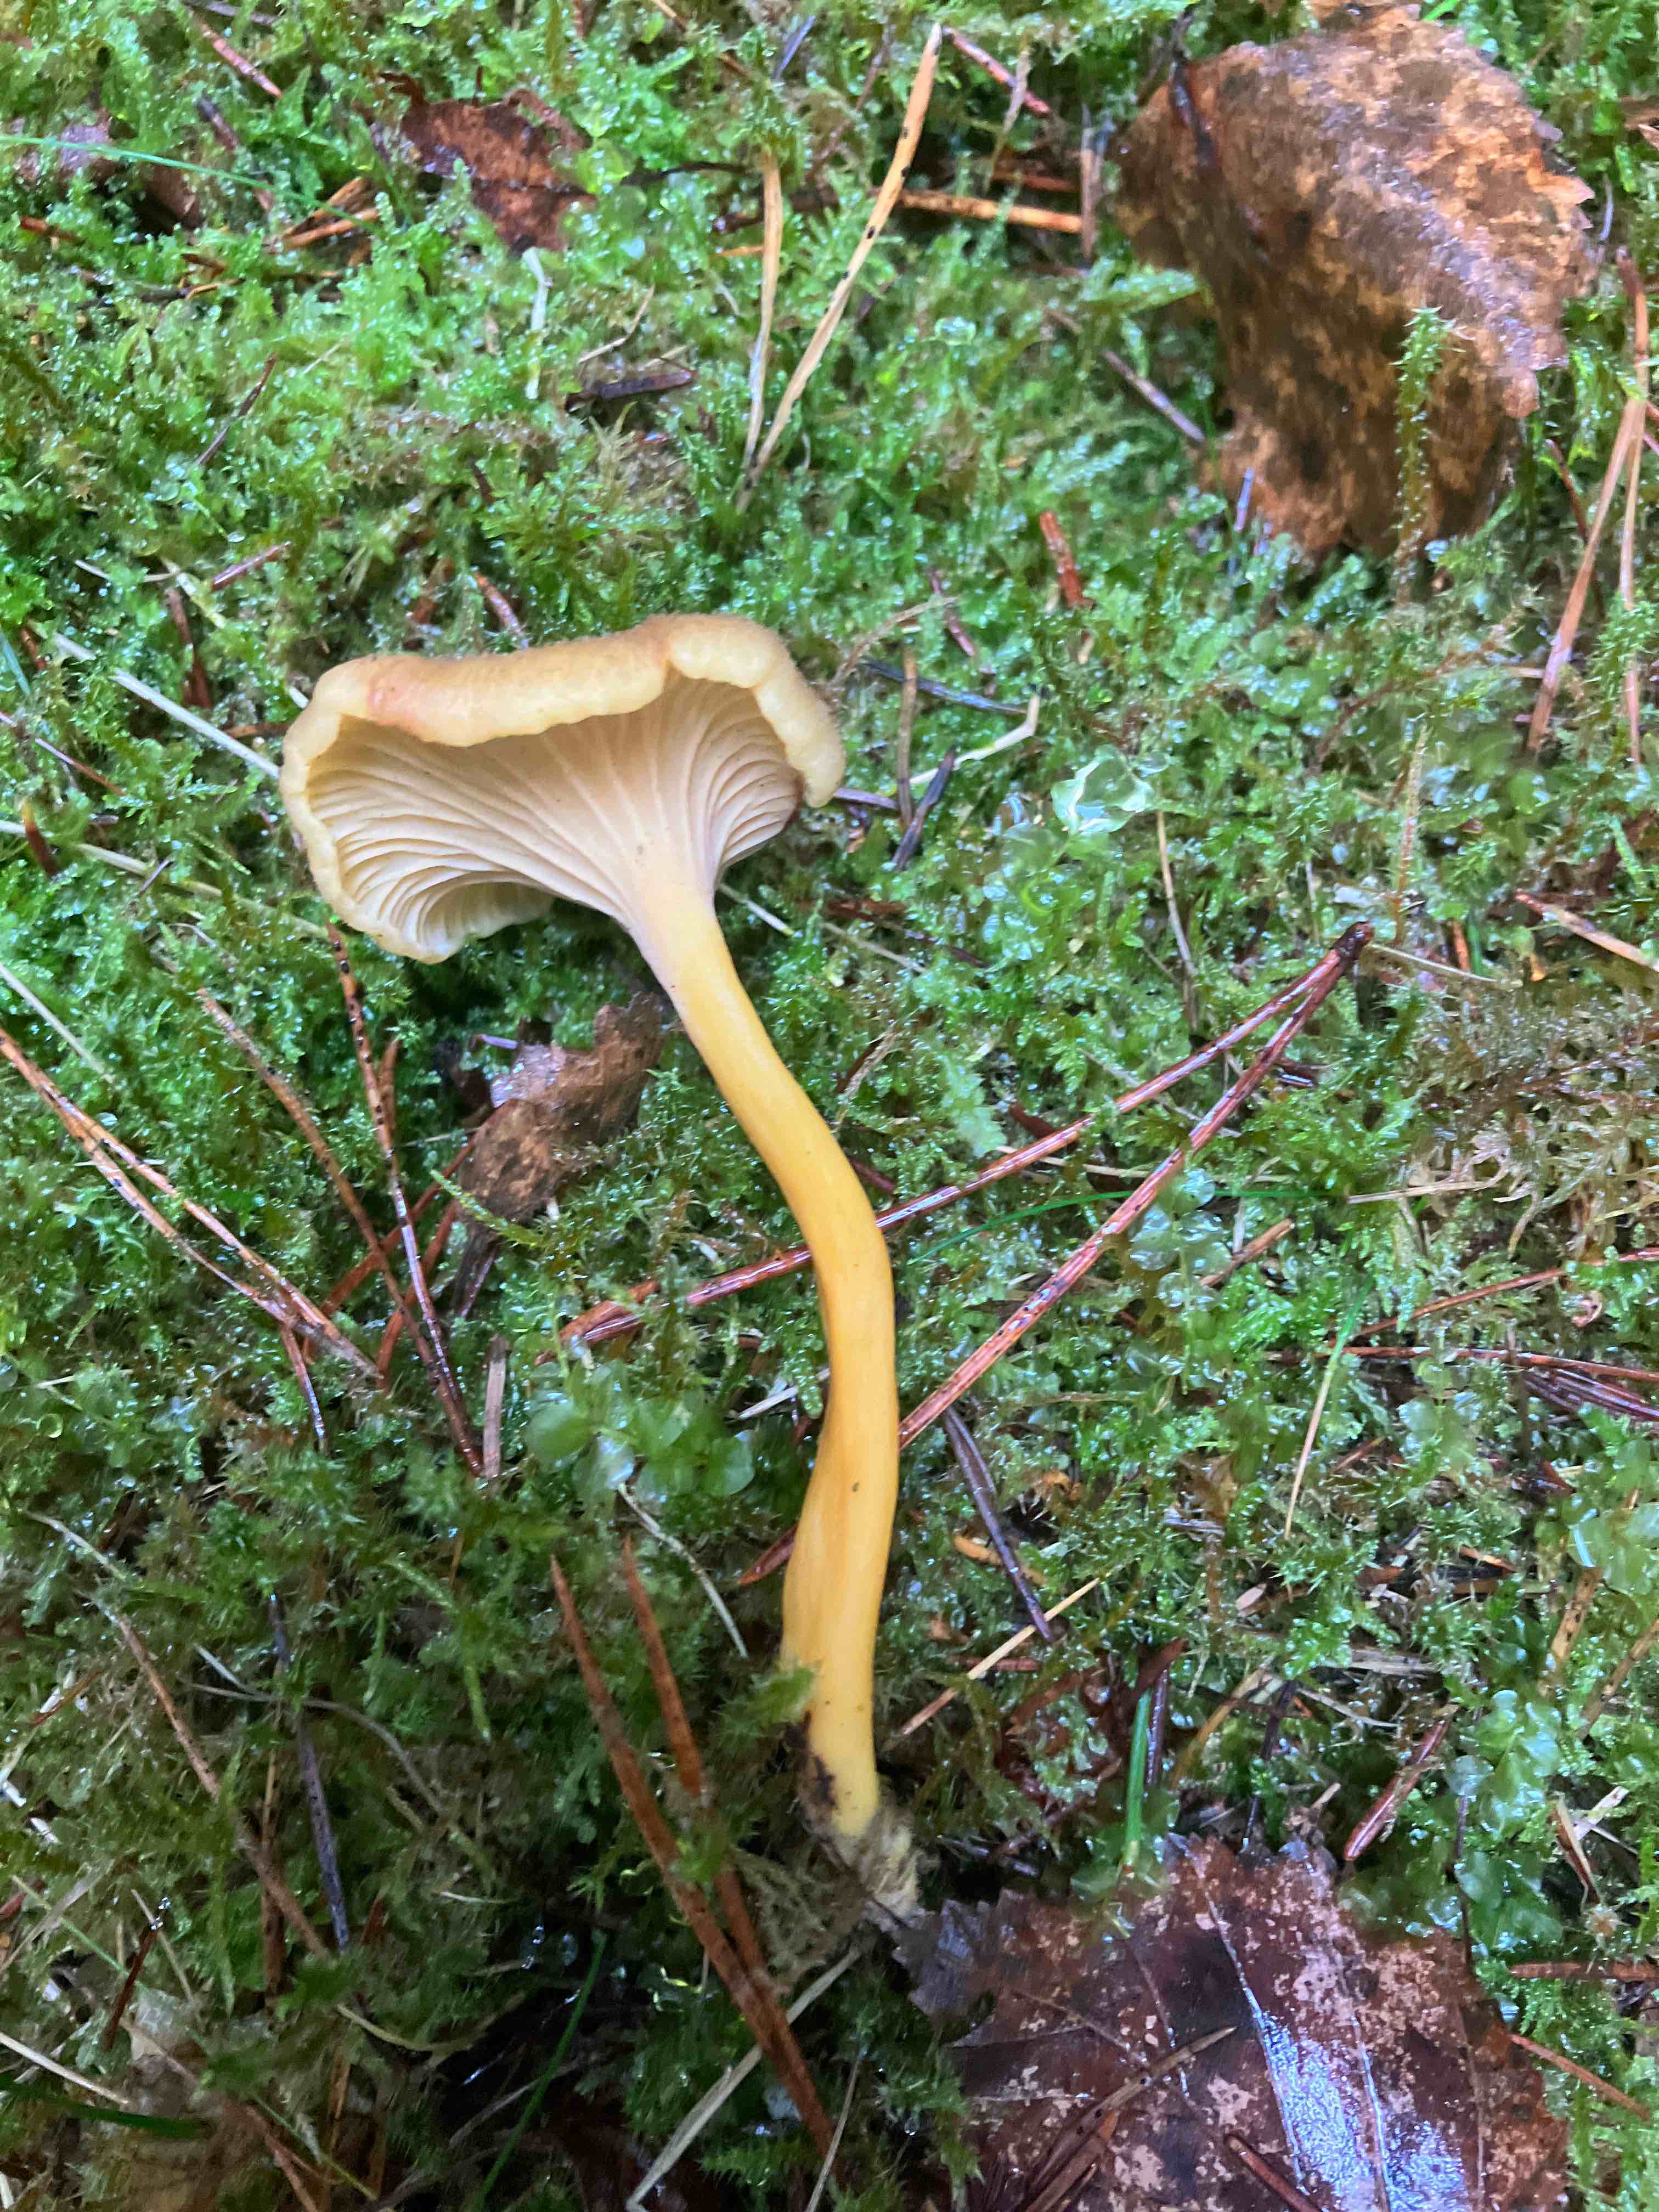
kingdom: Fungi
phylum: Basidiomycota
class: Agaricomycetes
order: Cantharellales
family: Hydnaceae
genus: Craterellus
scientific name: Craterellus tubaeformis
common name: tragt-kantarel
